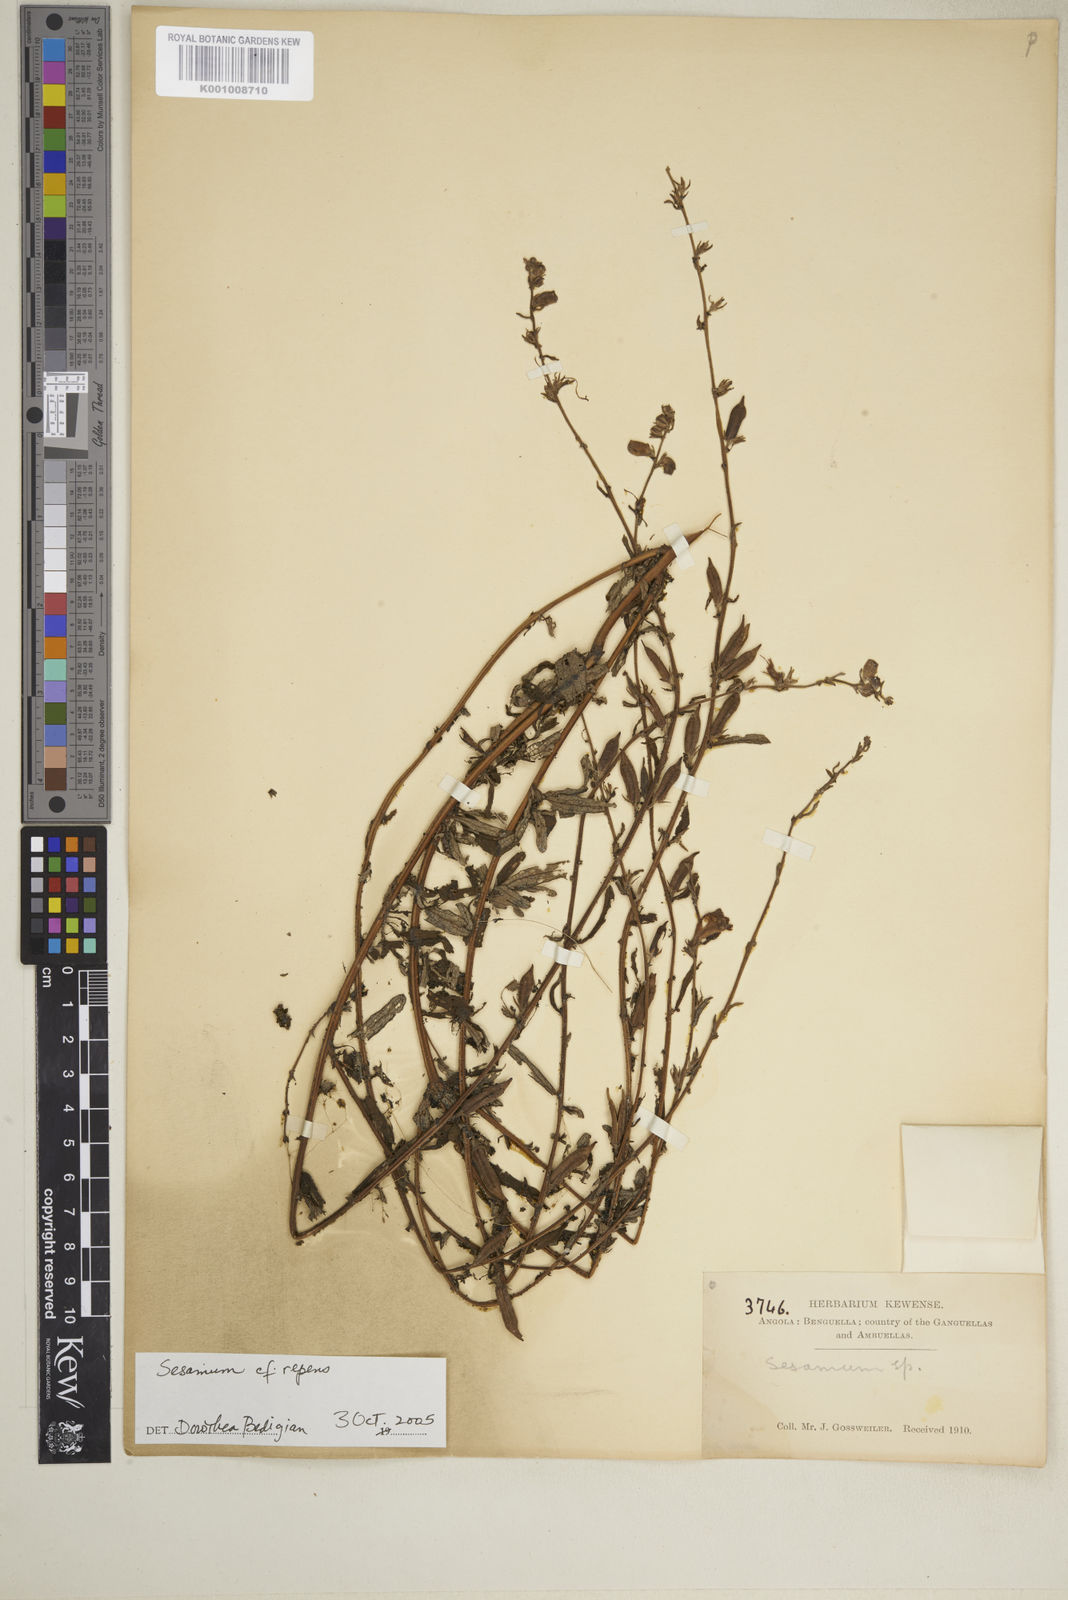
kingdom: Plantae
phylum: Tracheophyta
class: Magnoliopsida
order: Lamiales
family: Pedaliaceae
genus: Sesamum
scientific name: Sesamum calycinum
